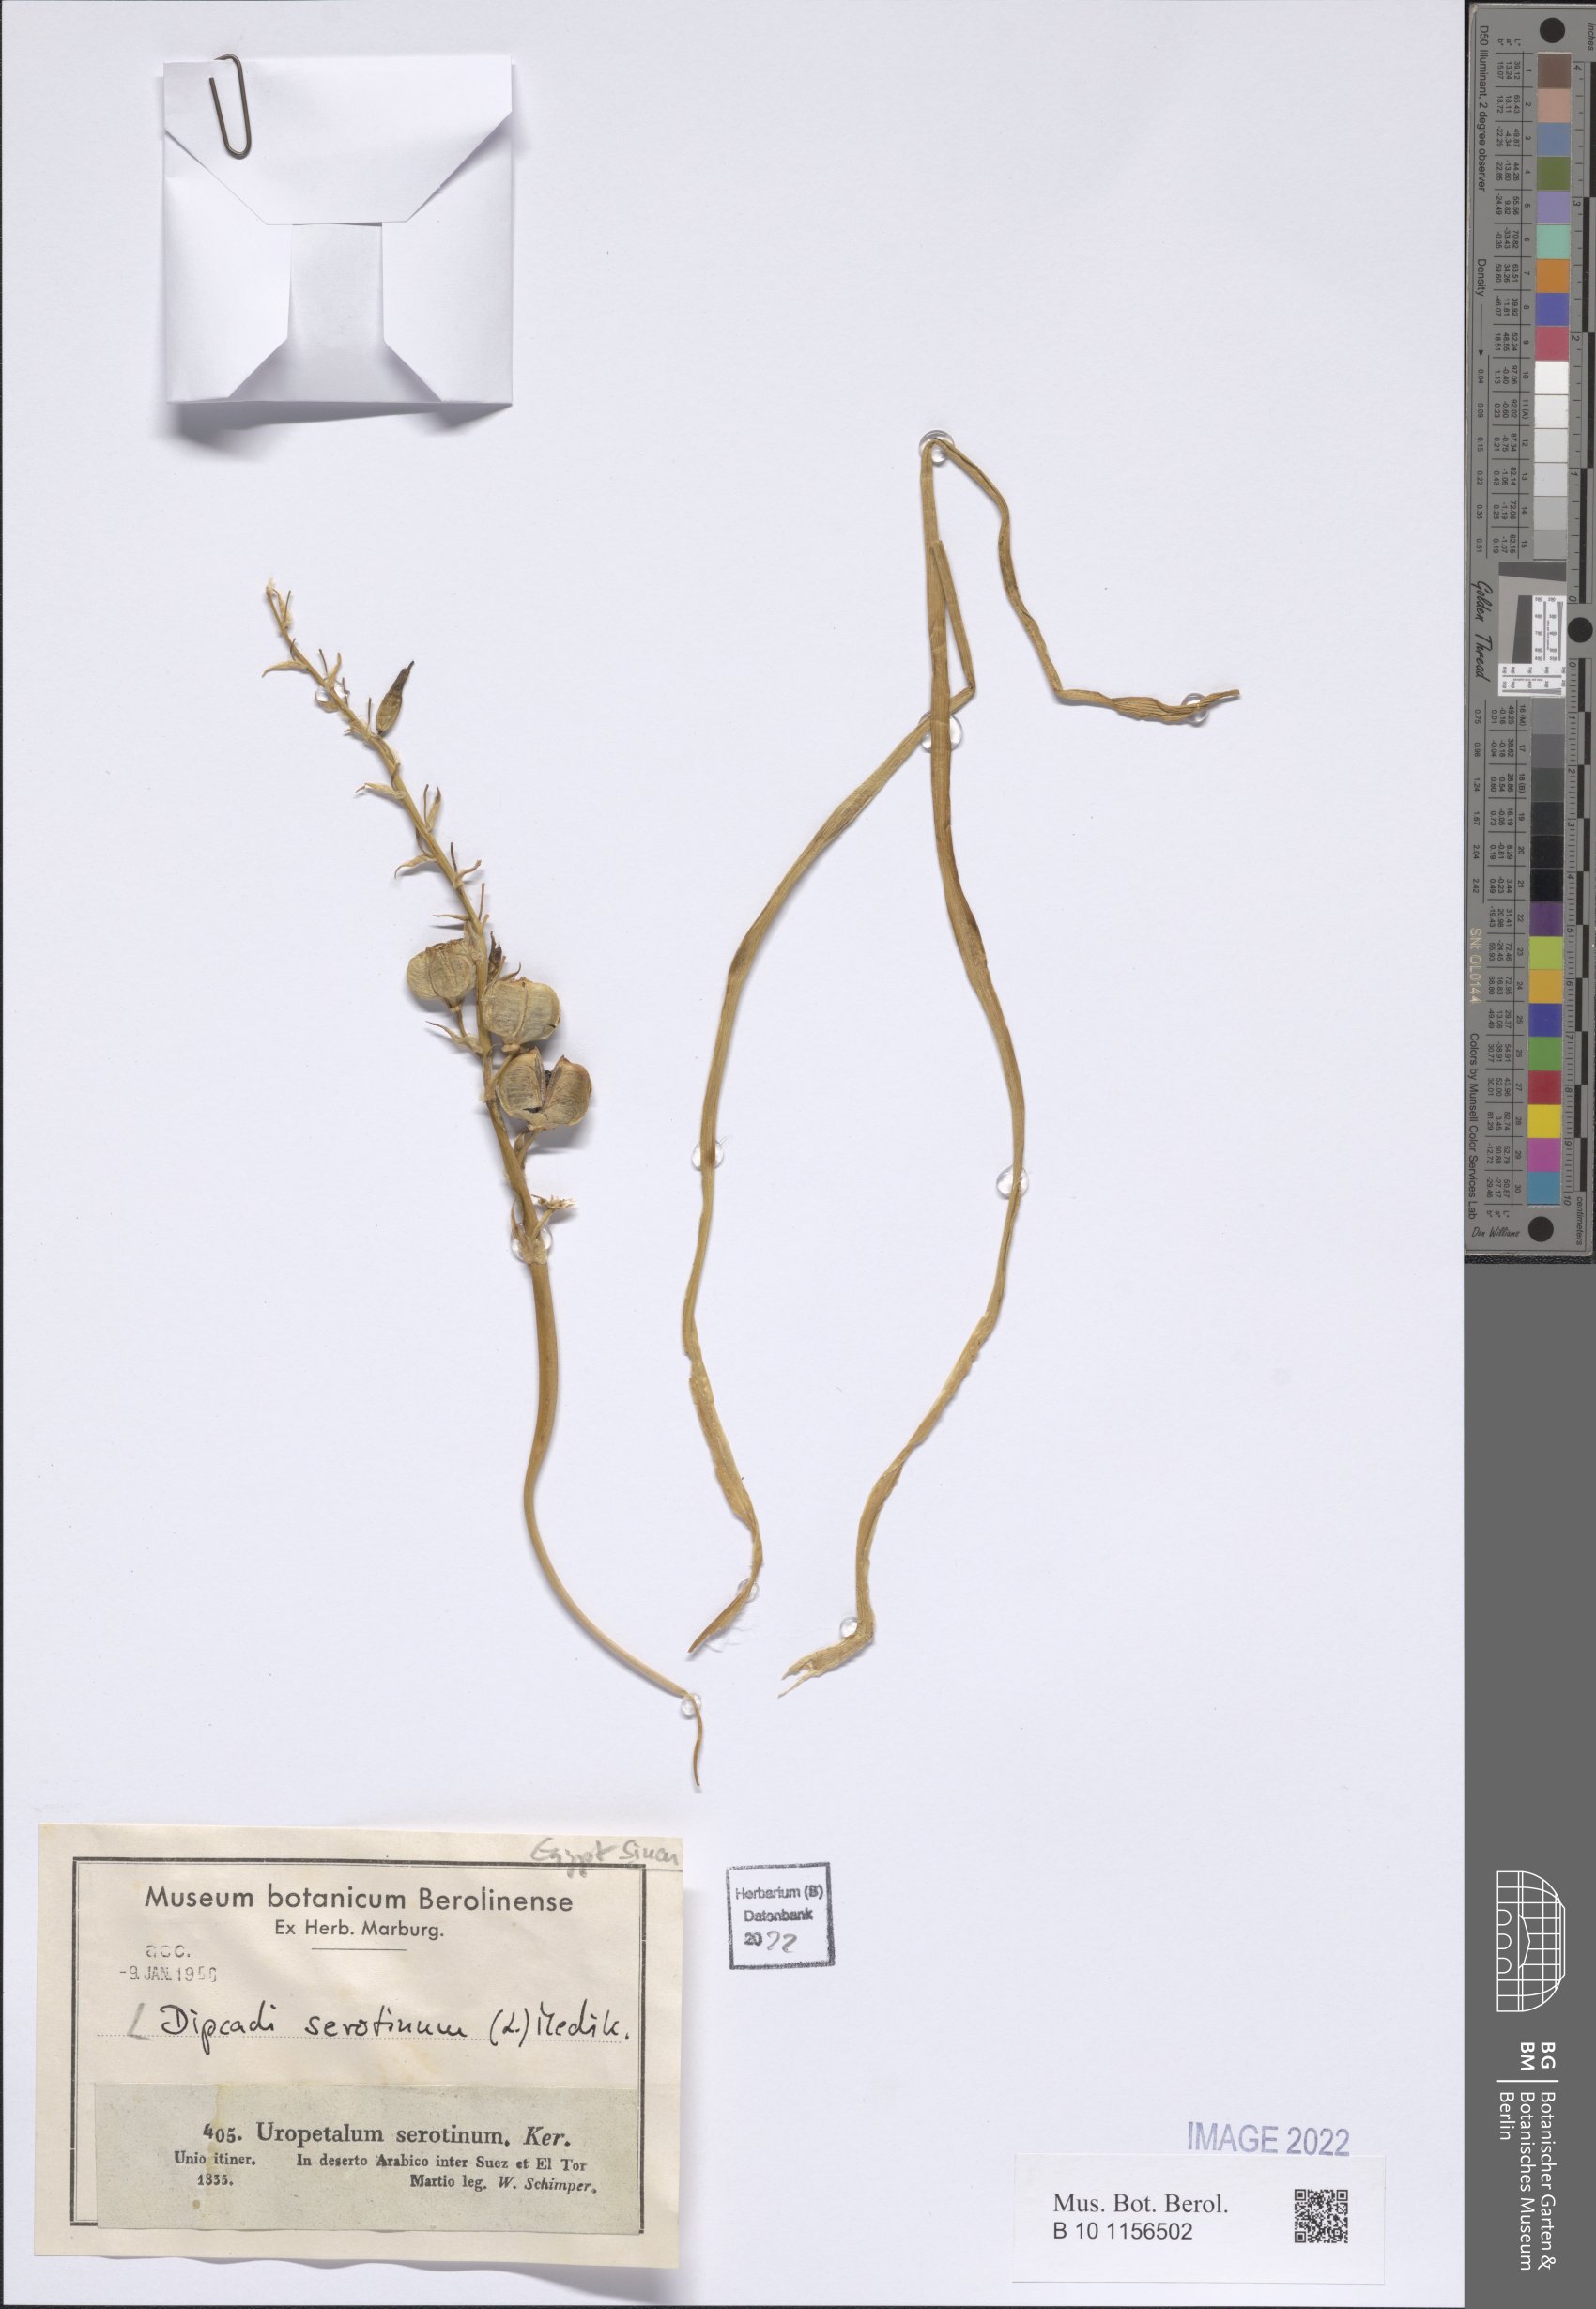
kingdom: Plantae
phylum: Tracheophyta
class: Liliopsida
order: Asparagales
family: Asparagaceae
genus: Dipcadi
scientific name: Dipcadi serotinum
